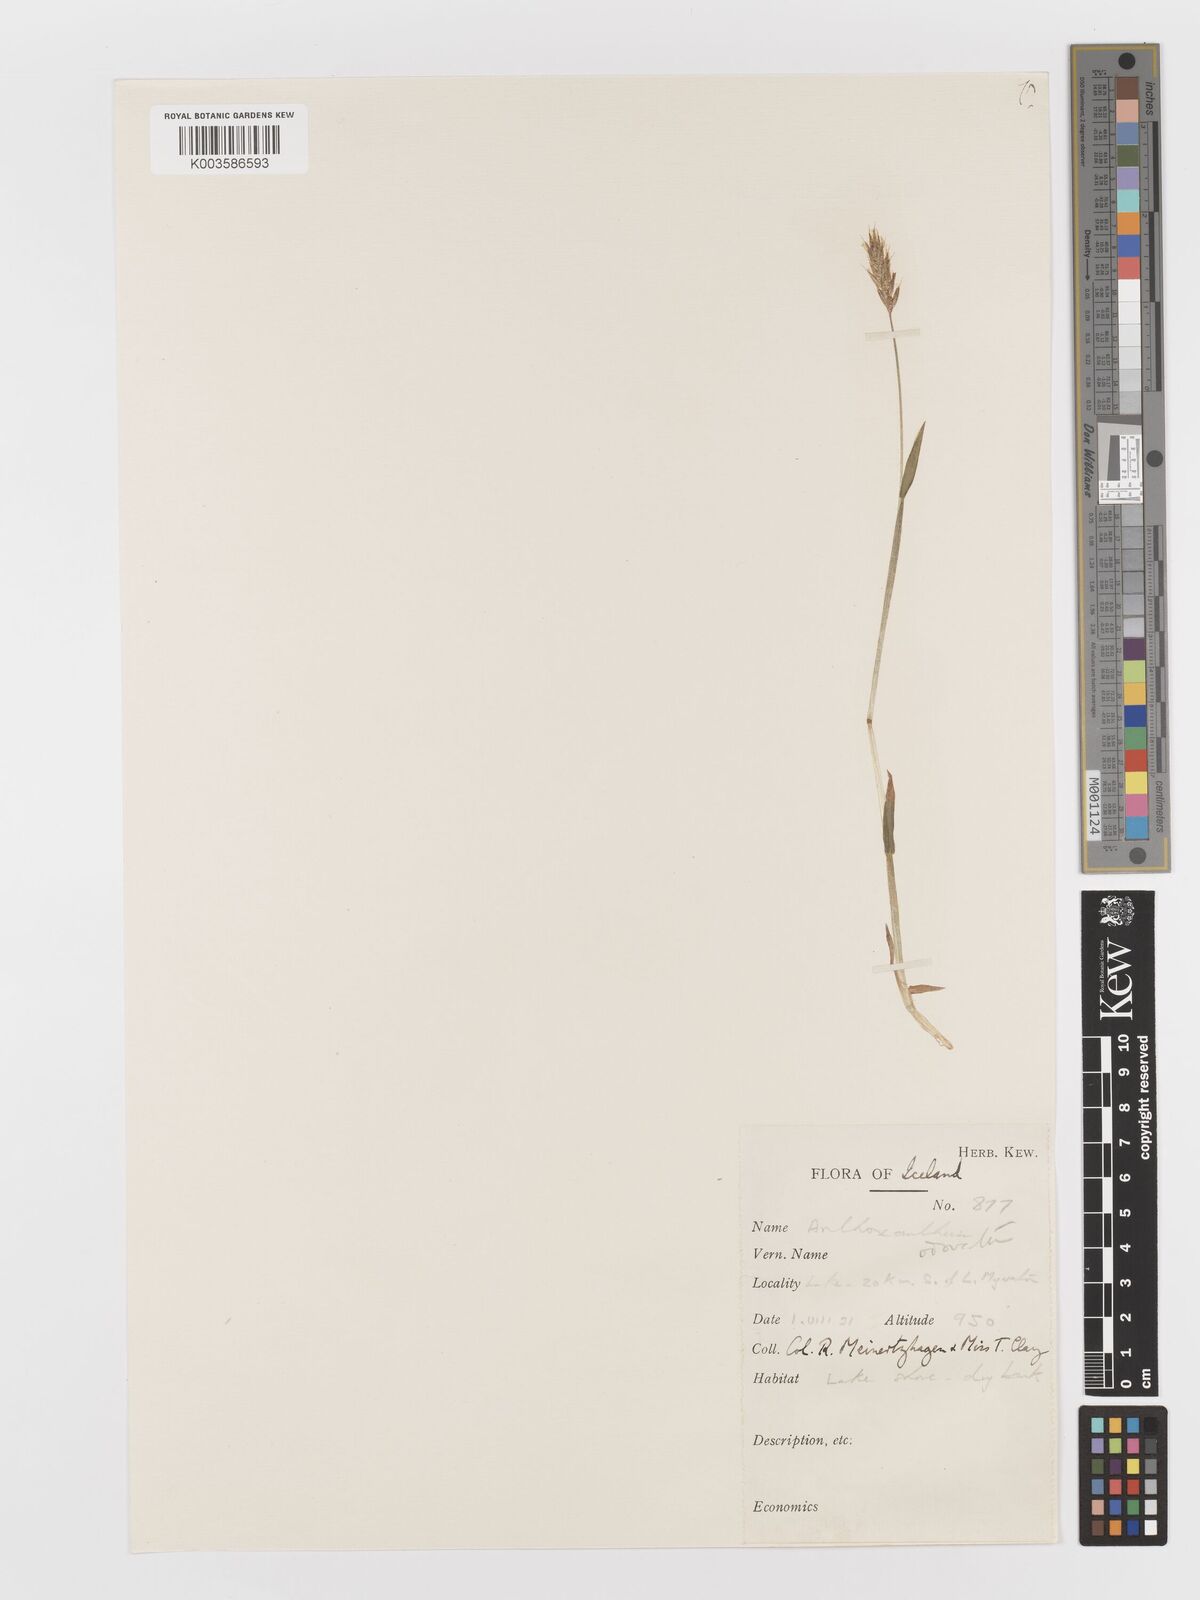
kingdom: Plantae
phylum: Tracheophyta
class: Liliopsida
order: Poales
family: Poaceae
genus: Anthoxanthum
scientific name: Anthoxanthum odoratum
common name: Sweet vernalgrass
